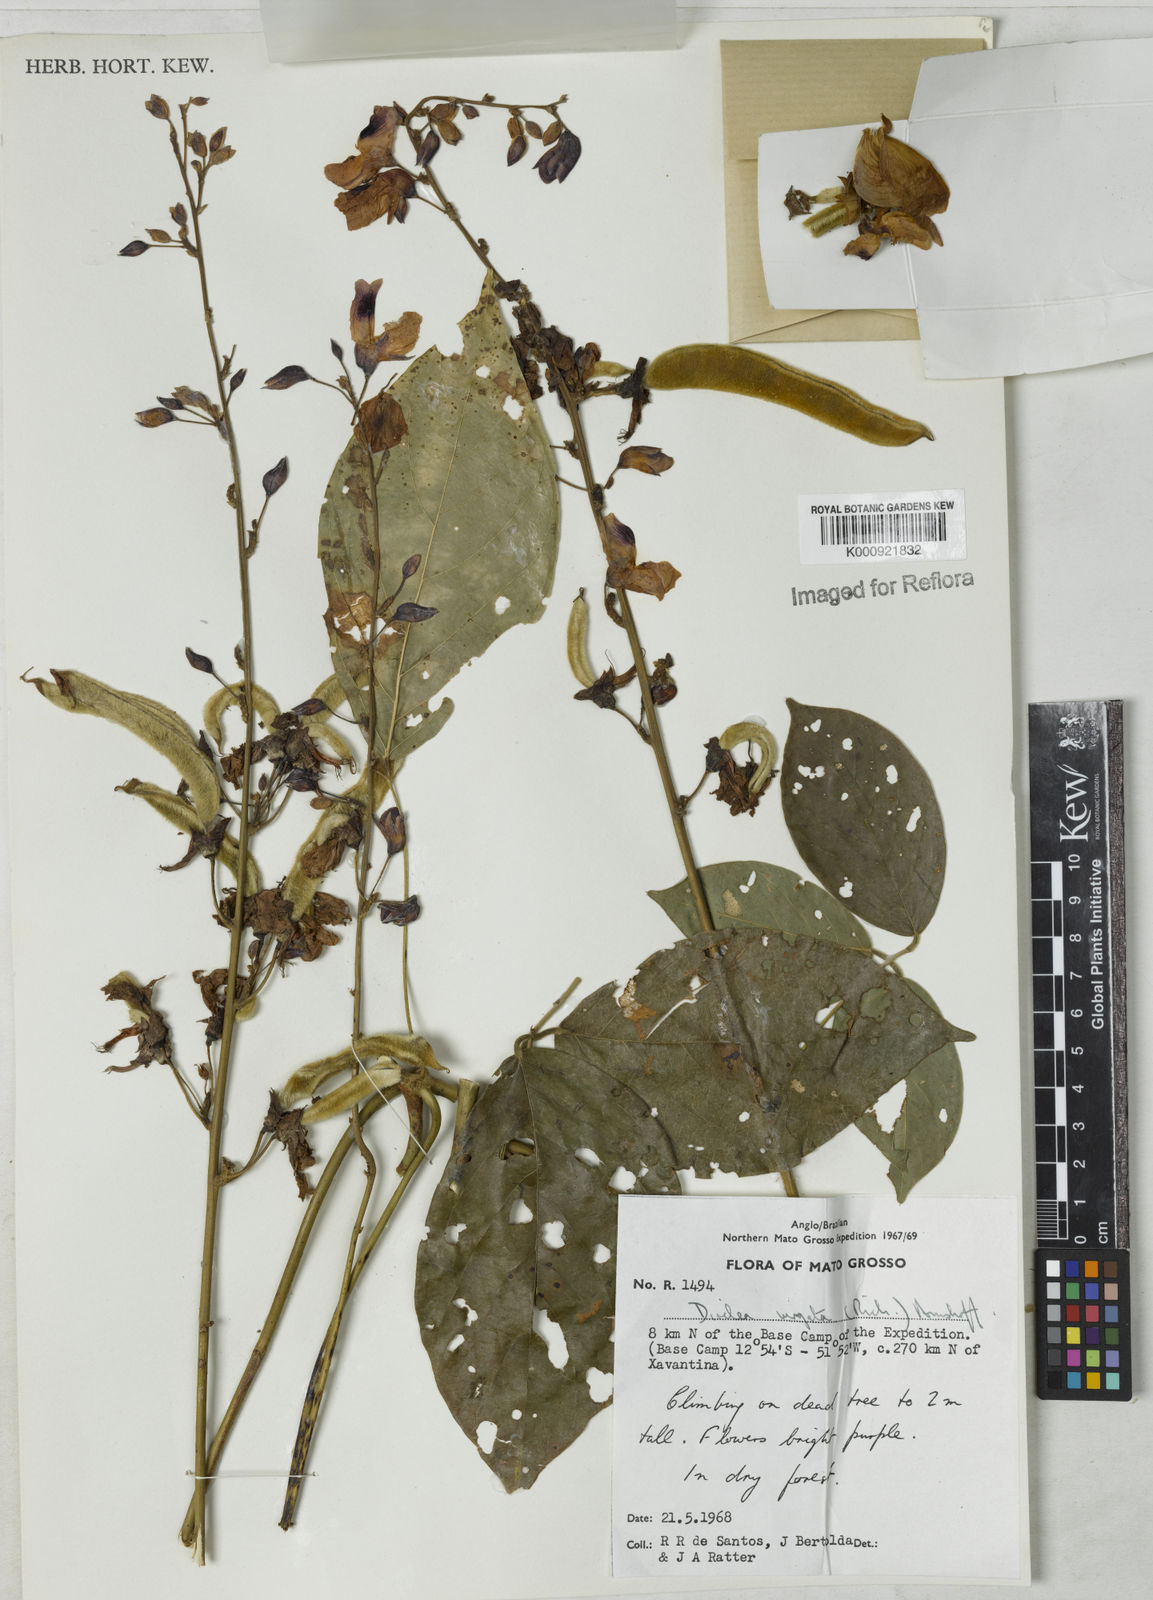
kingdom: Plantae
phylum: Tracheophyta
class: Magnoliopsida
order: Fabales
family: Fabaceae
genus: Dioclea
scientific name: Dioclea virgata
